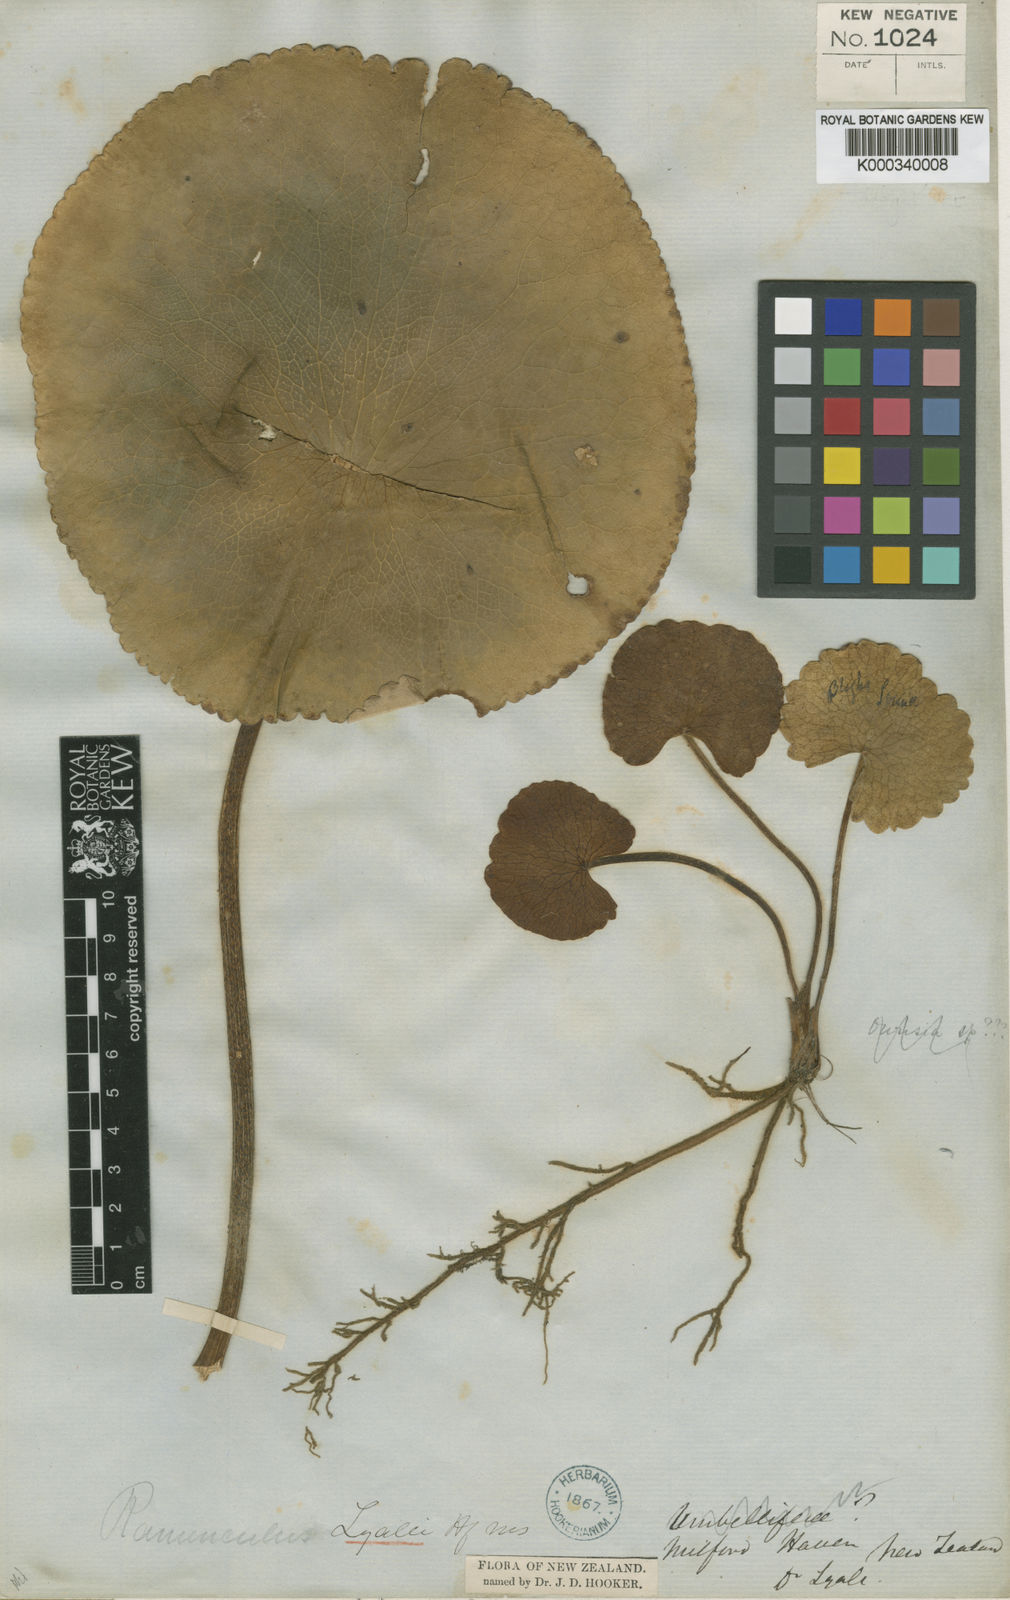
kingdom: Plantae
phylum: Tracheophyta
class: Magnoliopsida
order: Ranunculales
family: Ranunculaceae
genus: Ranunculus
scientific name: Ranunculus lyallii
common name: Mountain-lily
